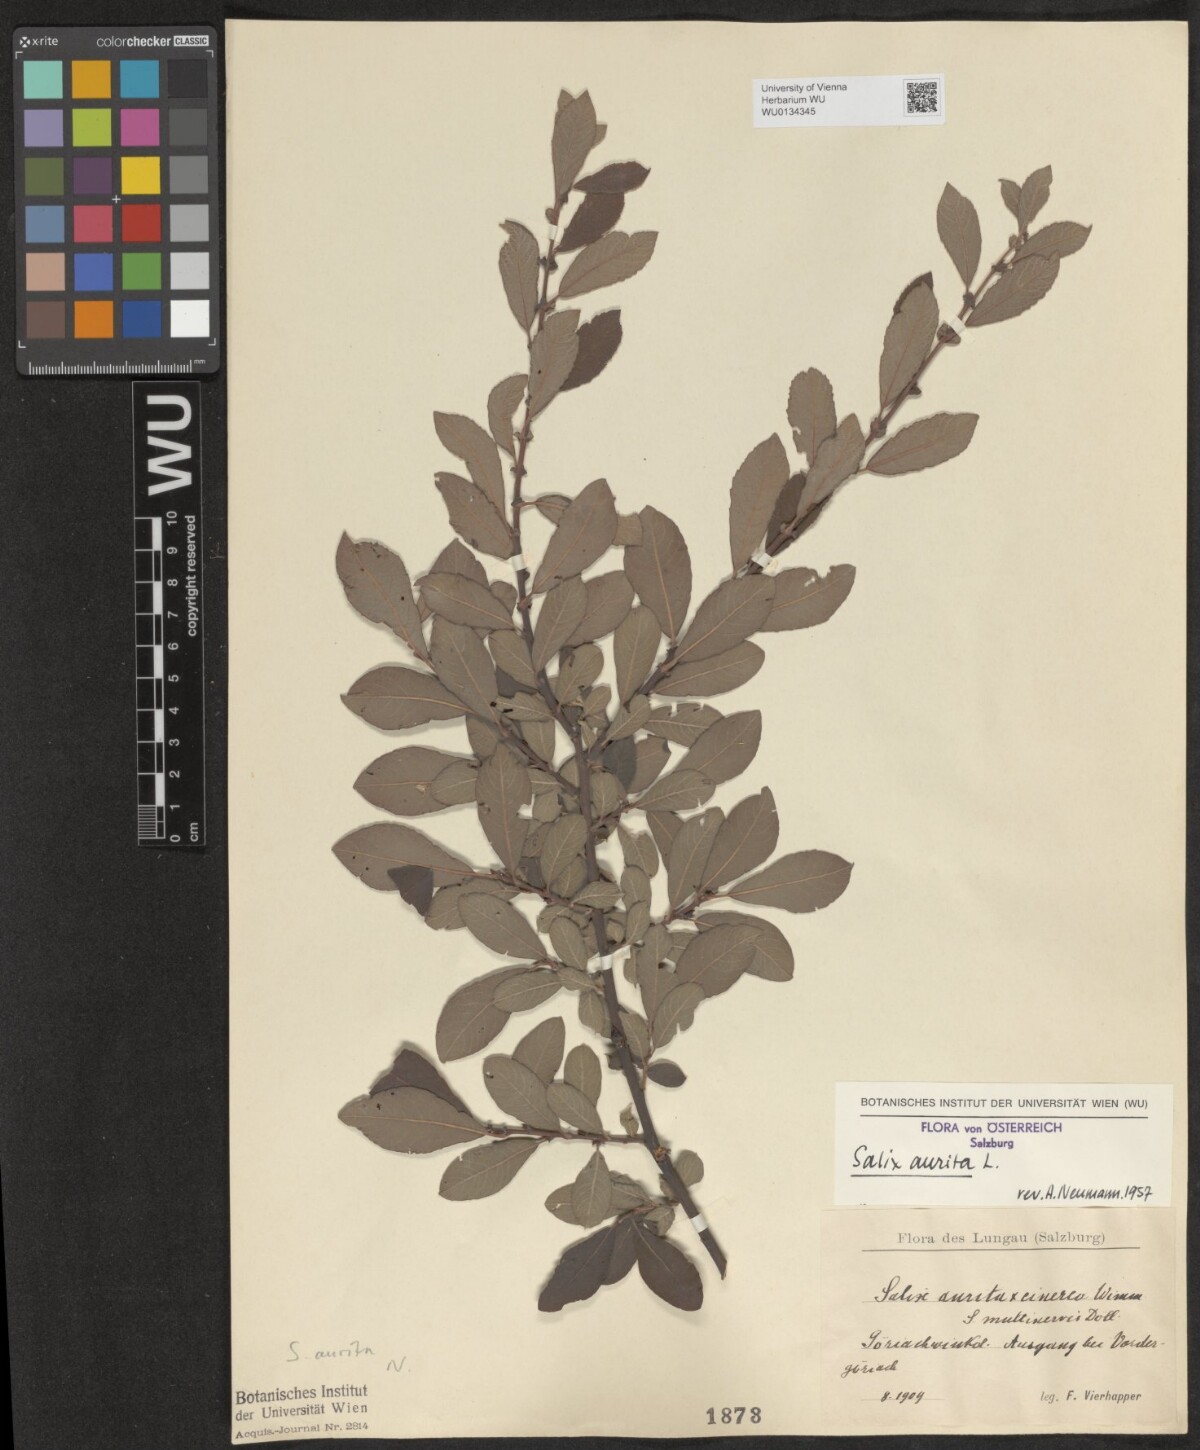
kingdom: Plantae
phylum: Tracheophyta
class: Magnoliopsida
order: Malpighiales
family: Salicaceae
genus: Salix
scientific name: Salix aurita
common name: Eared willow
